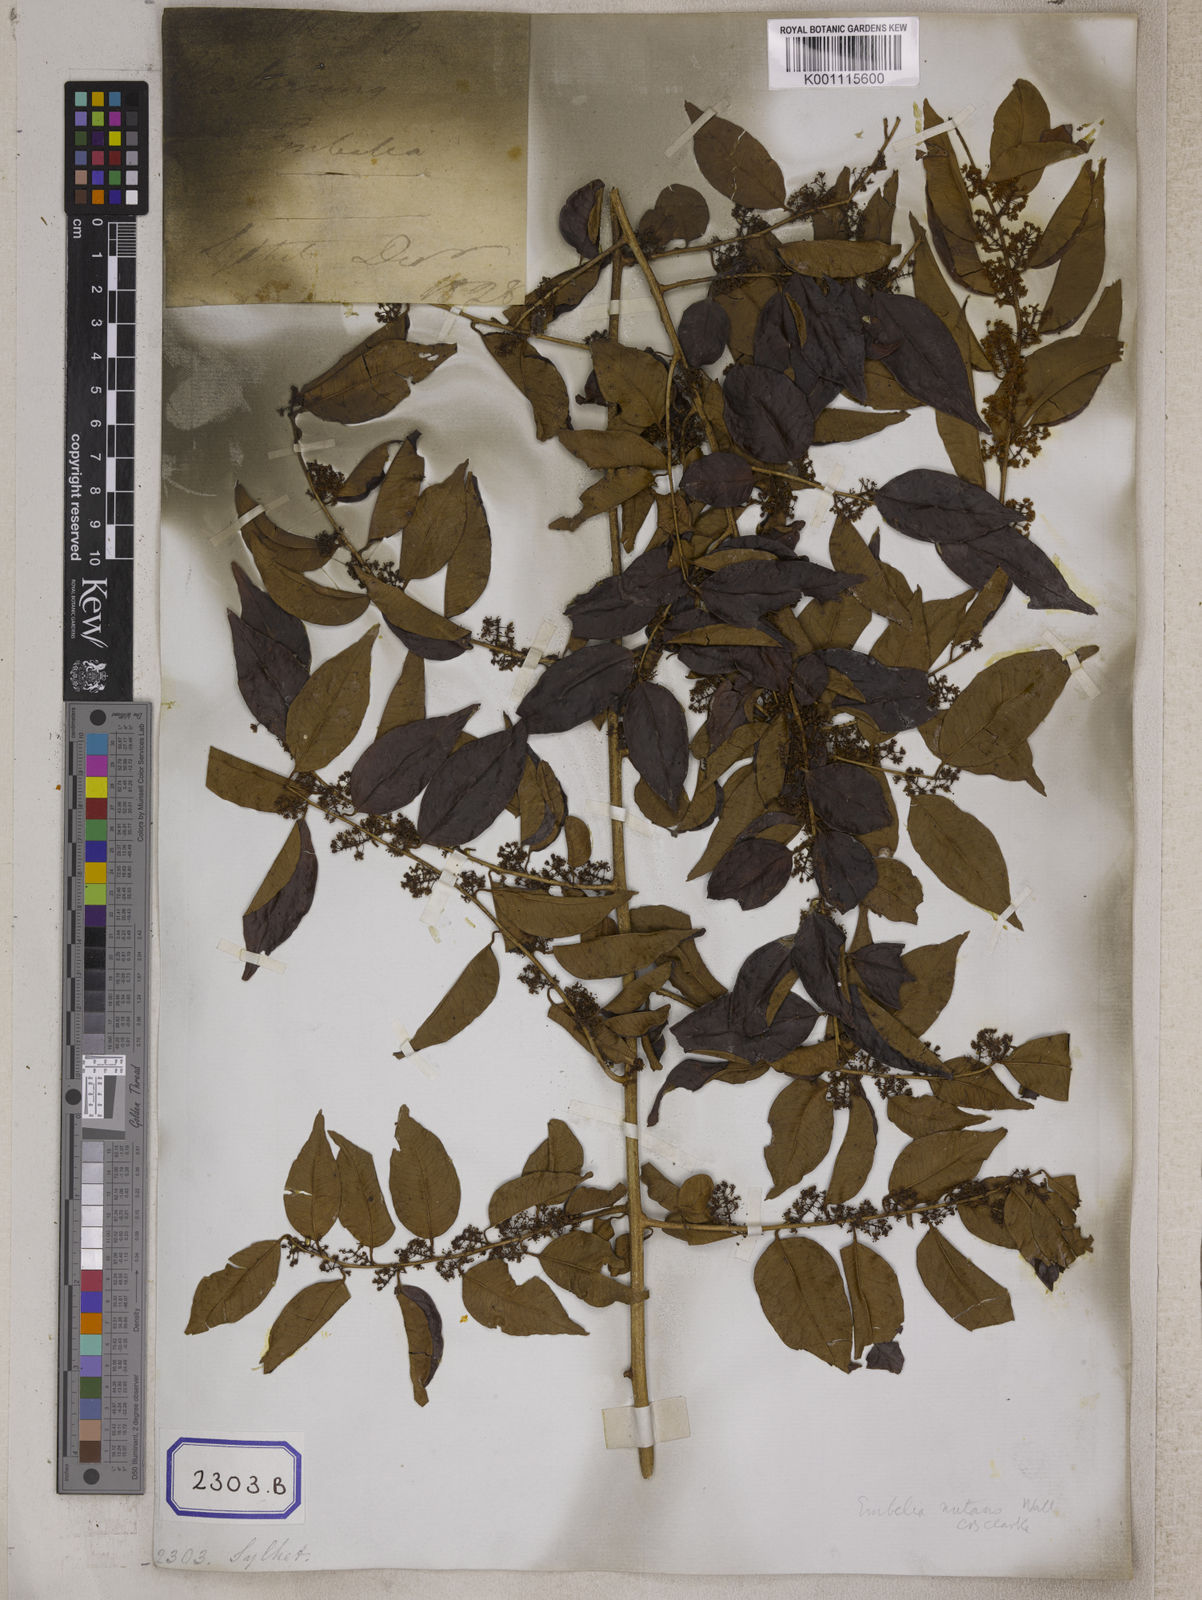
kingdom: Plantae
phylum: Tracheophyta
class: Magnoliopsida
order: Ericales
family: Primulaceae
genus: Embelia
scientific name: Embelia nutans
